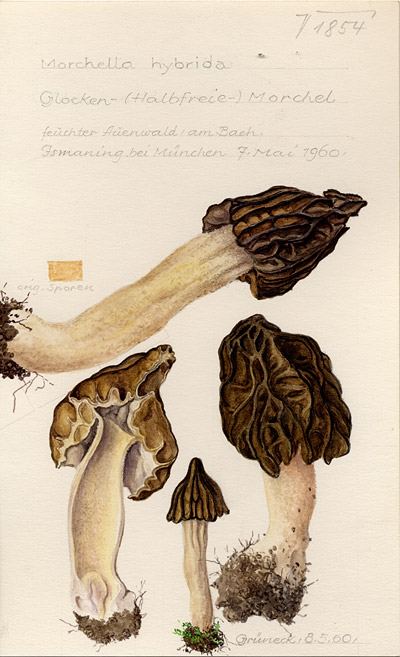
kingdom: Fungi
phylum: Ascomycota
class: Pezizomycetes
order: Pezizales
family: Morchellaceae
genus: Morchella
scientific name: Morchella semilibera
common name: Semifree morel
